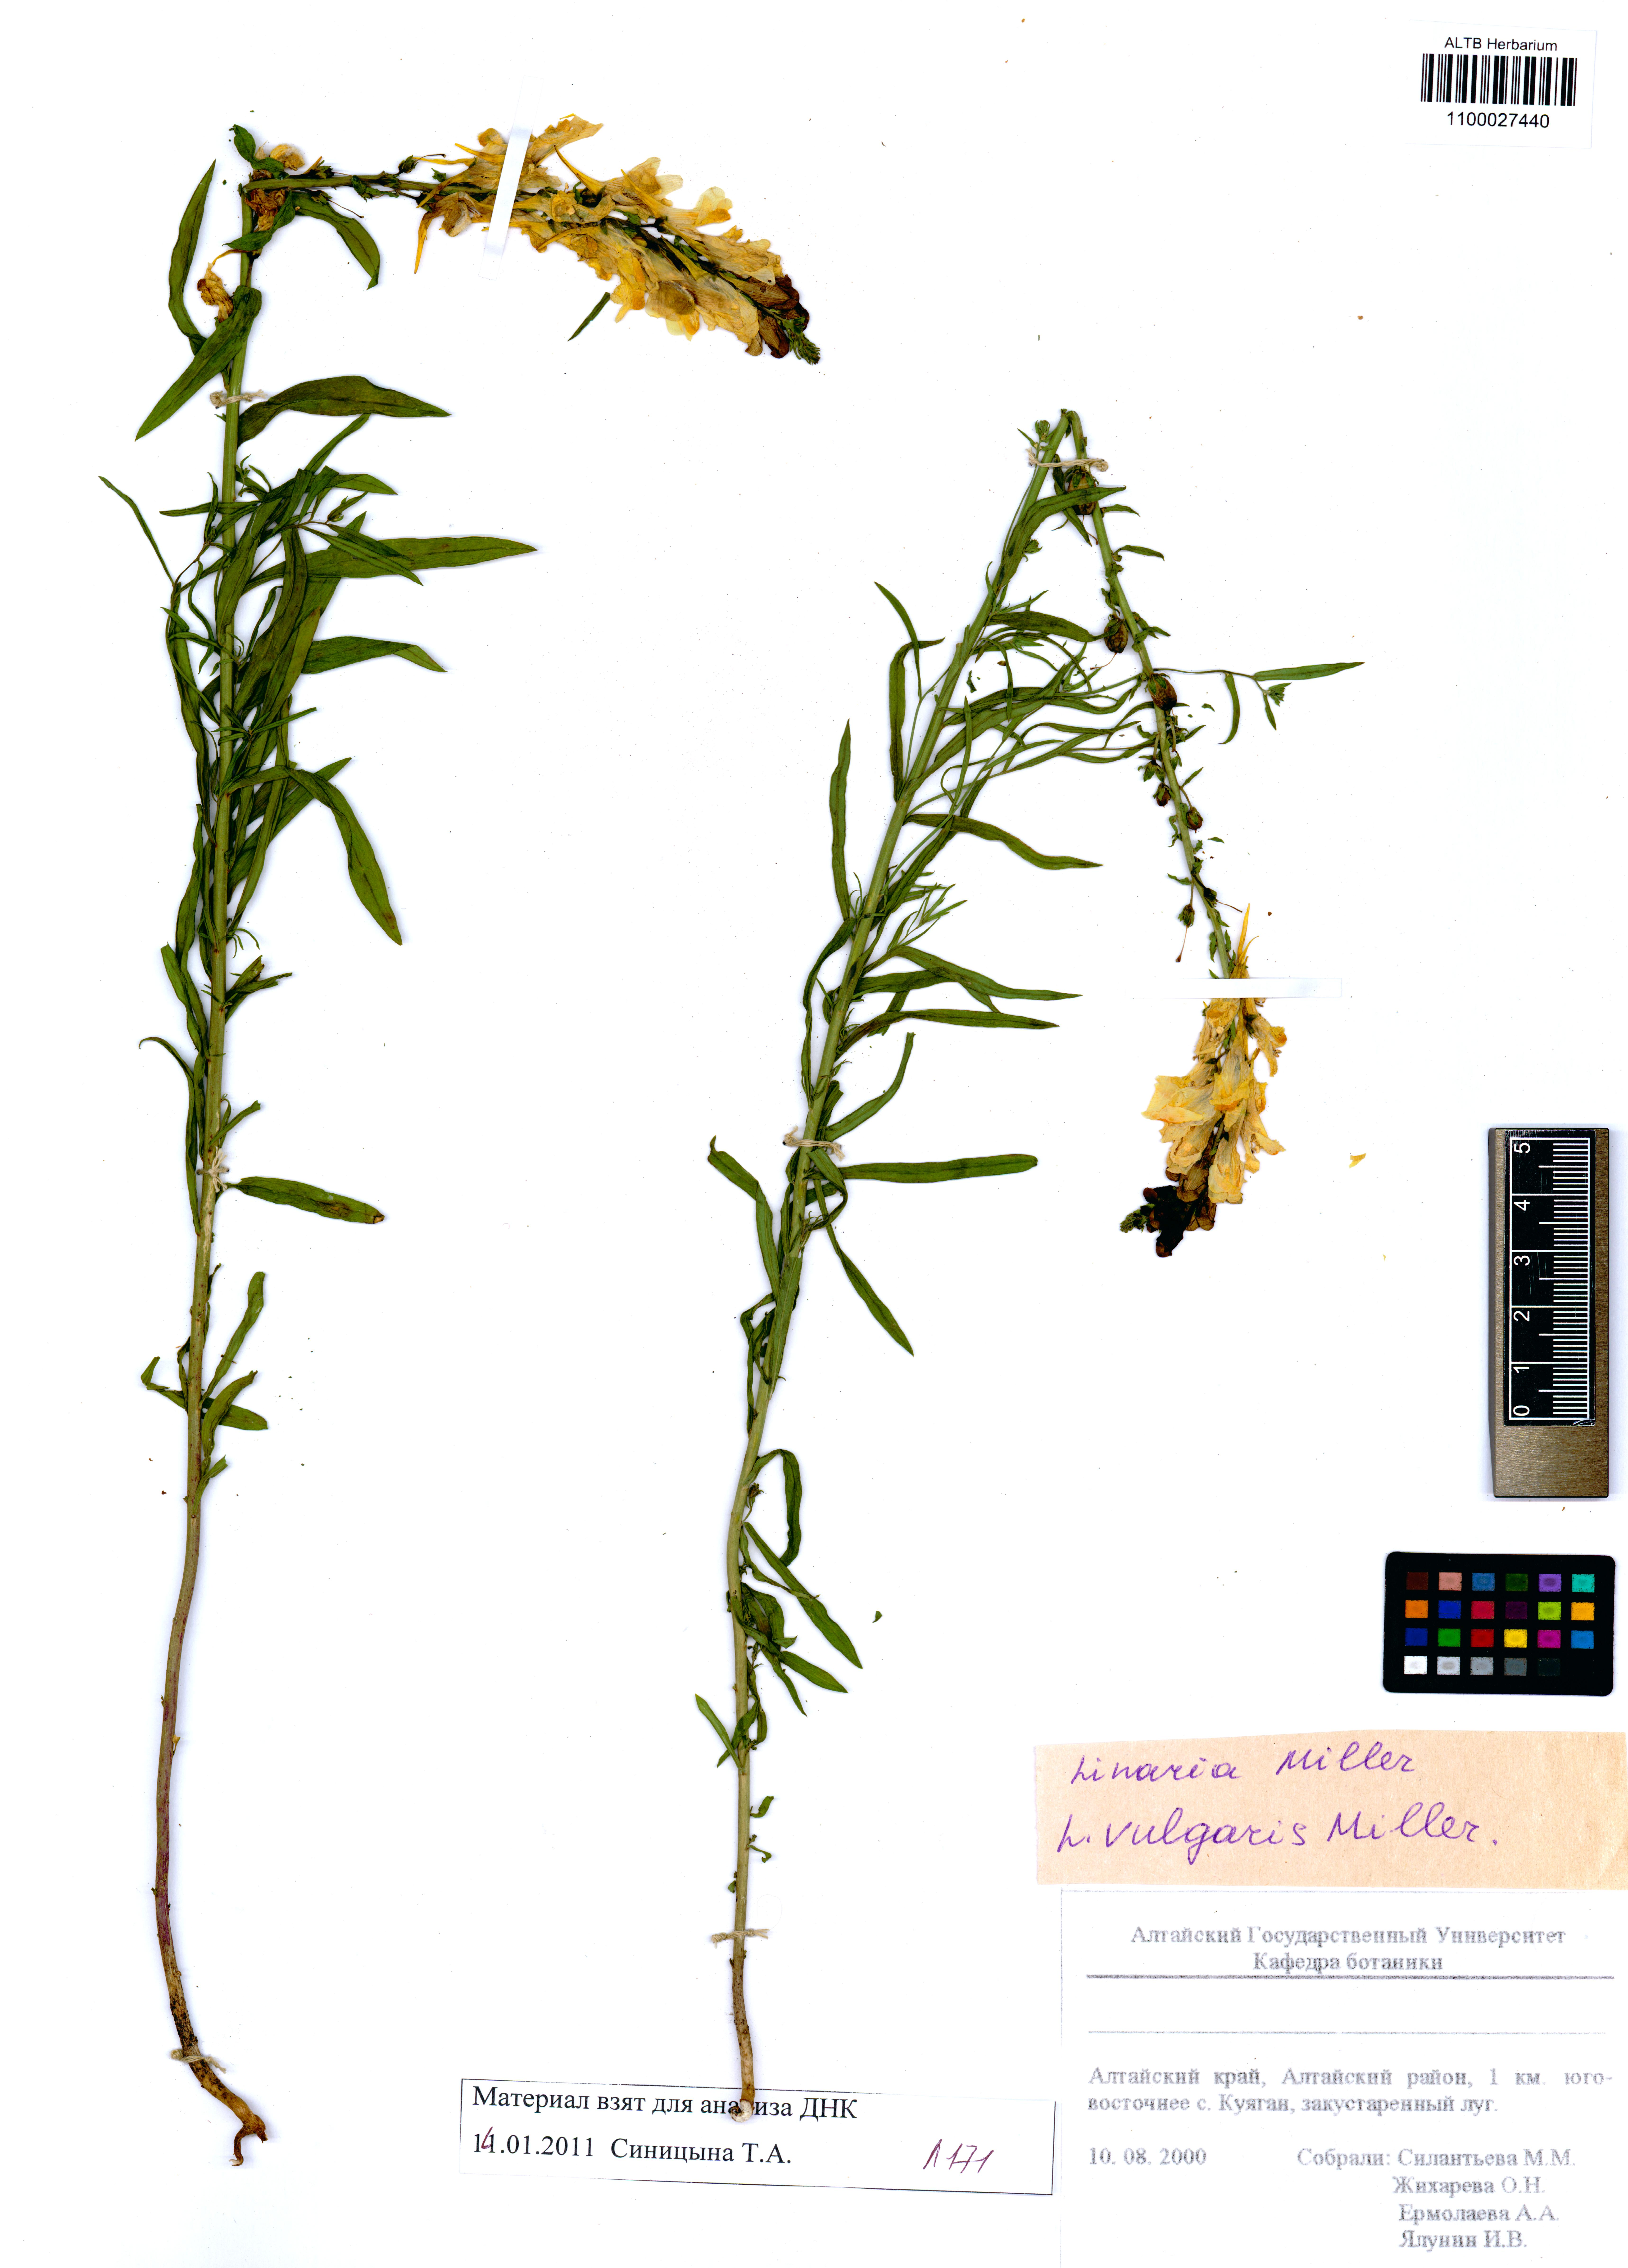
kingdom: Plantae
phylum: Tracheophyta
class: Magnoliopsida
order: Lamiales
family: Plantaginaceae
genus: Linaria
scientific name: Linaria vulgaris
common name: Butter and eggs
